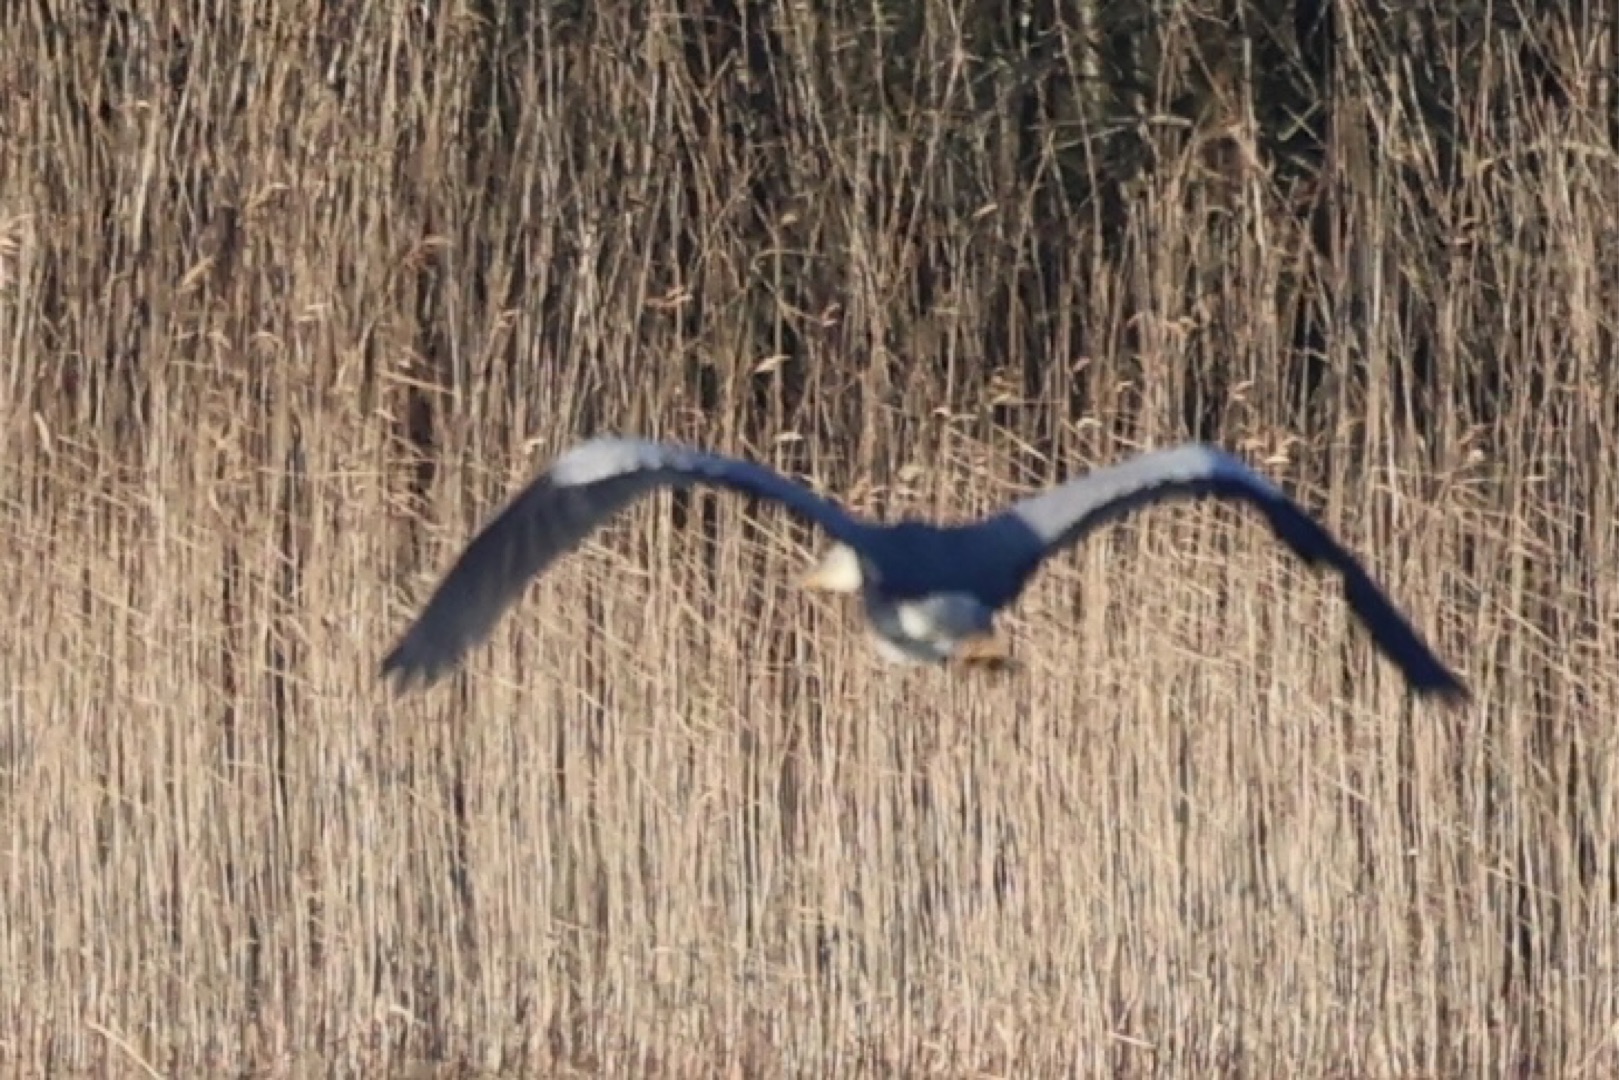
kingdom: Animalia
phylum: Chordata
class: Aves
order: Pelecaniformes
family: Ardeidae
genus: Ardea
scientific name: Ardea cinerea
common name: Fiskehejre
